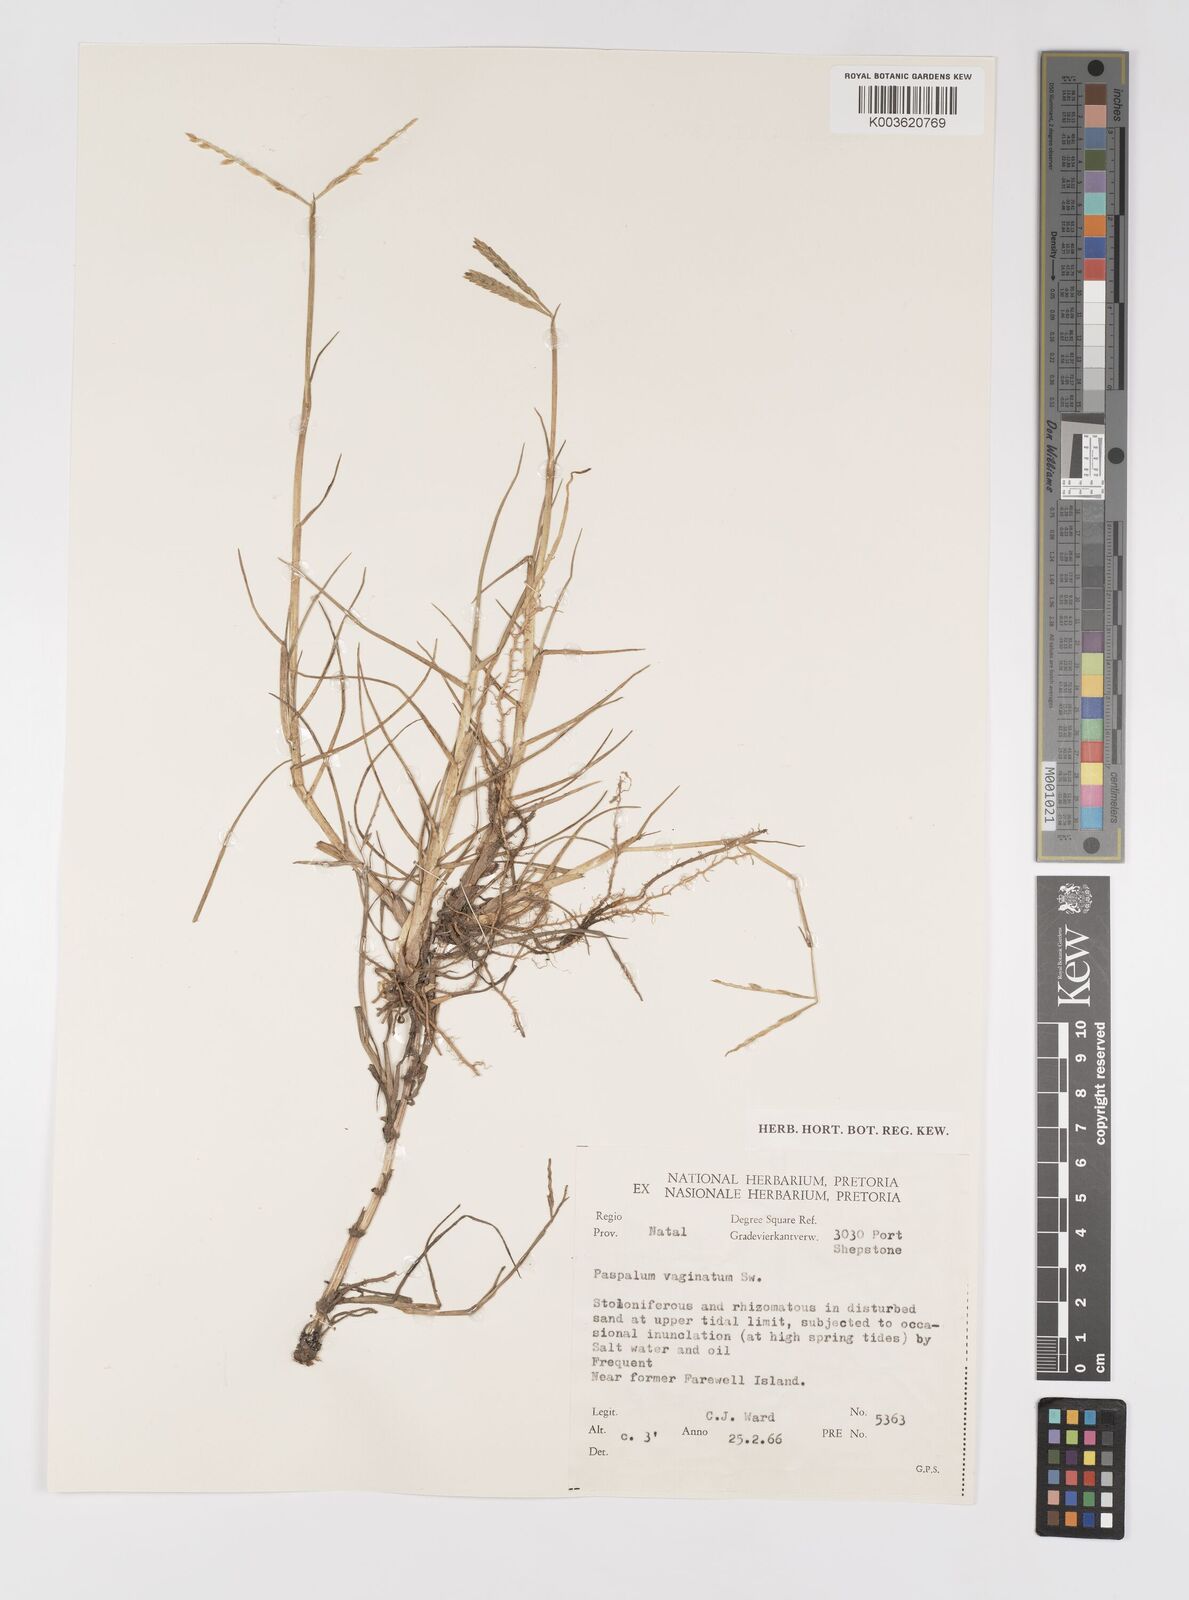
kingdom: Plantae
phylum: Tracheophyta
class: Liliopsida
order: Poales
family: Poaceae
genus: Paspalum
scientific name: Paspalum vaginatum
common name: Seashore paspalum
